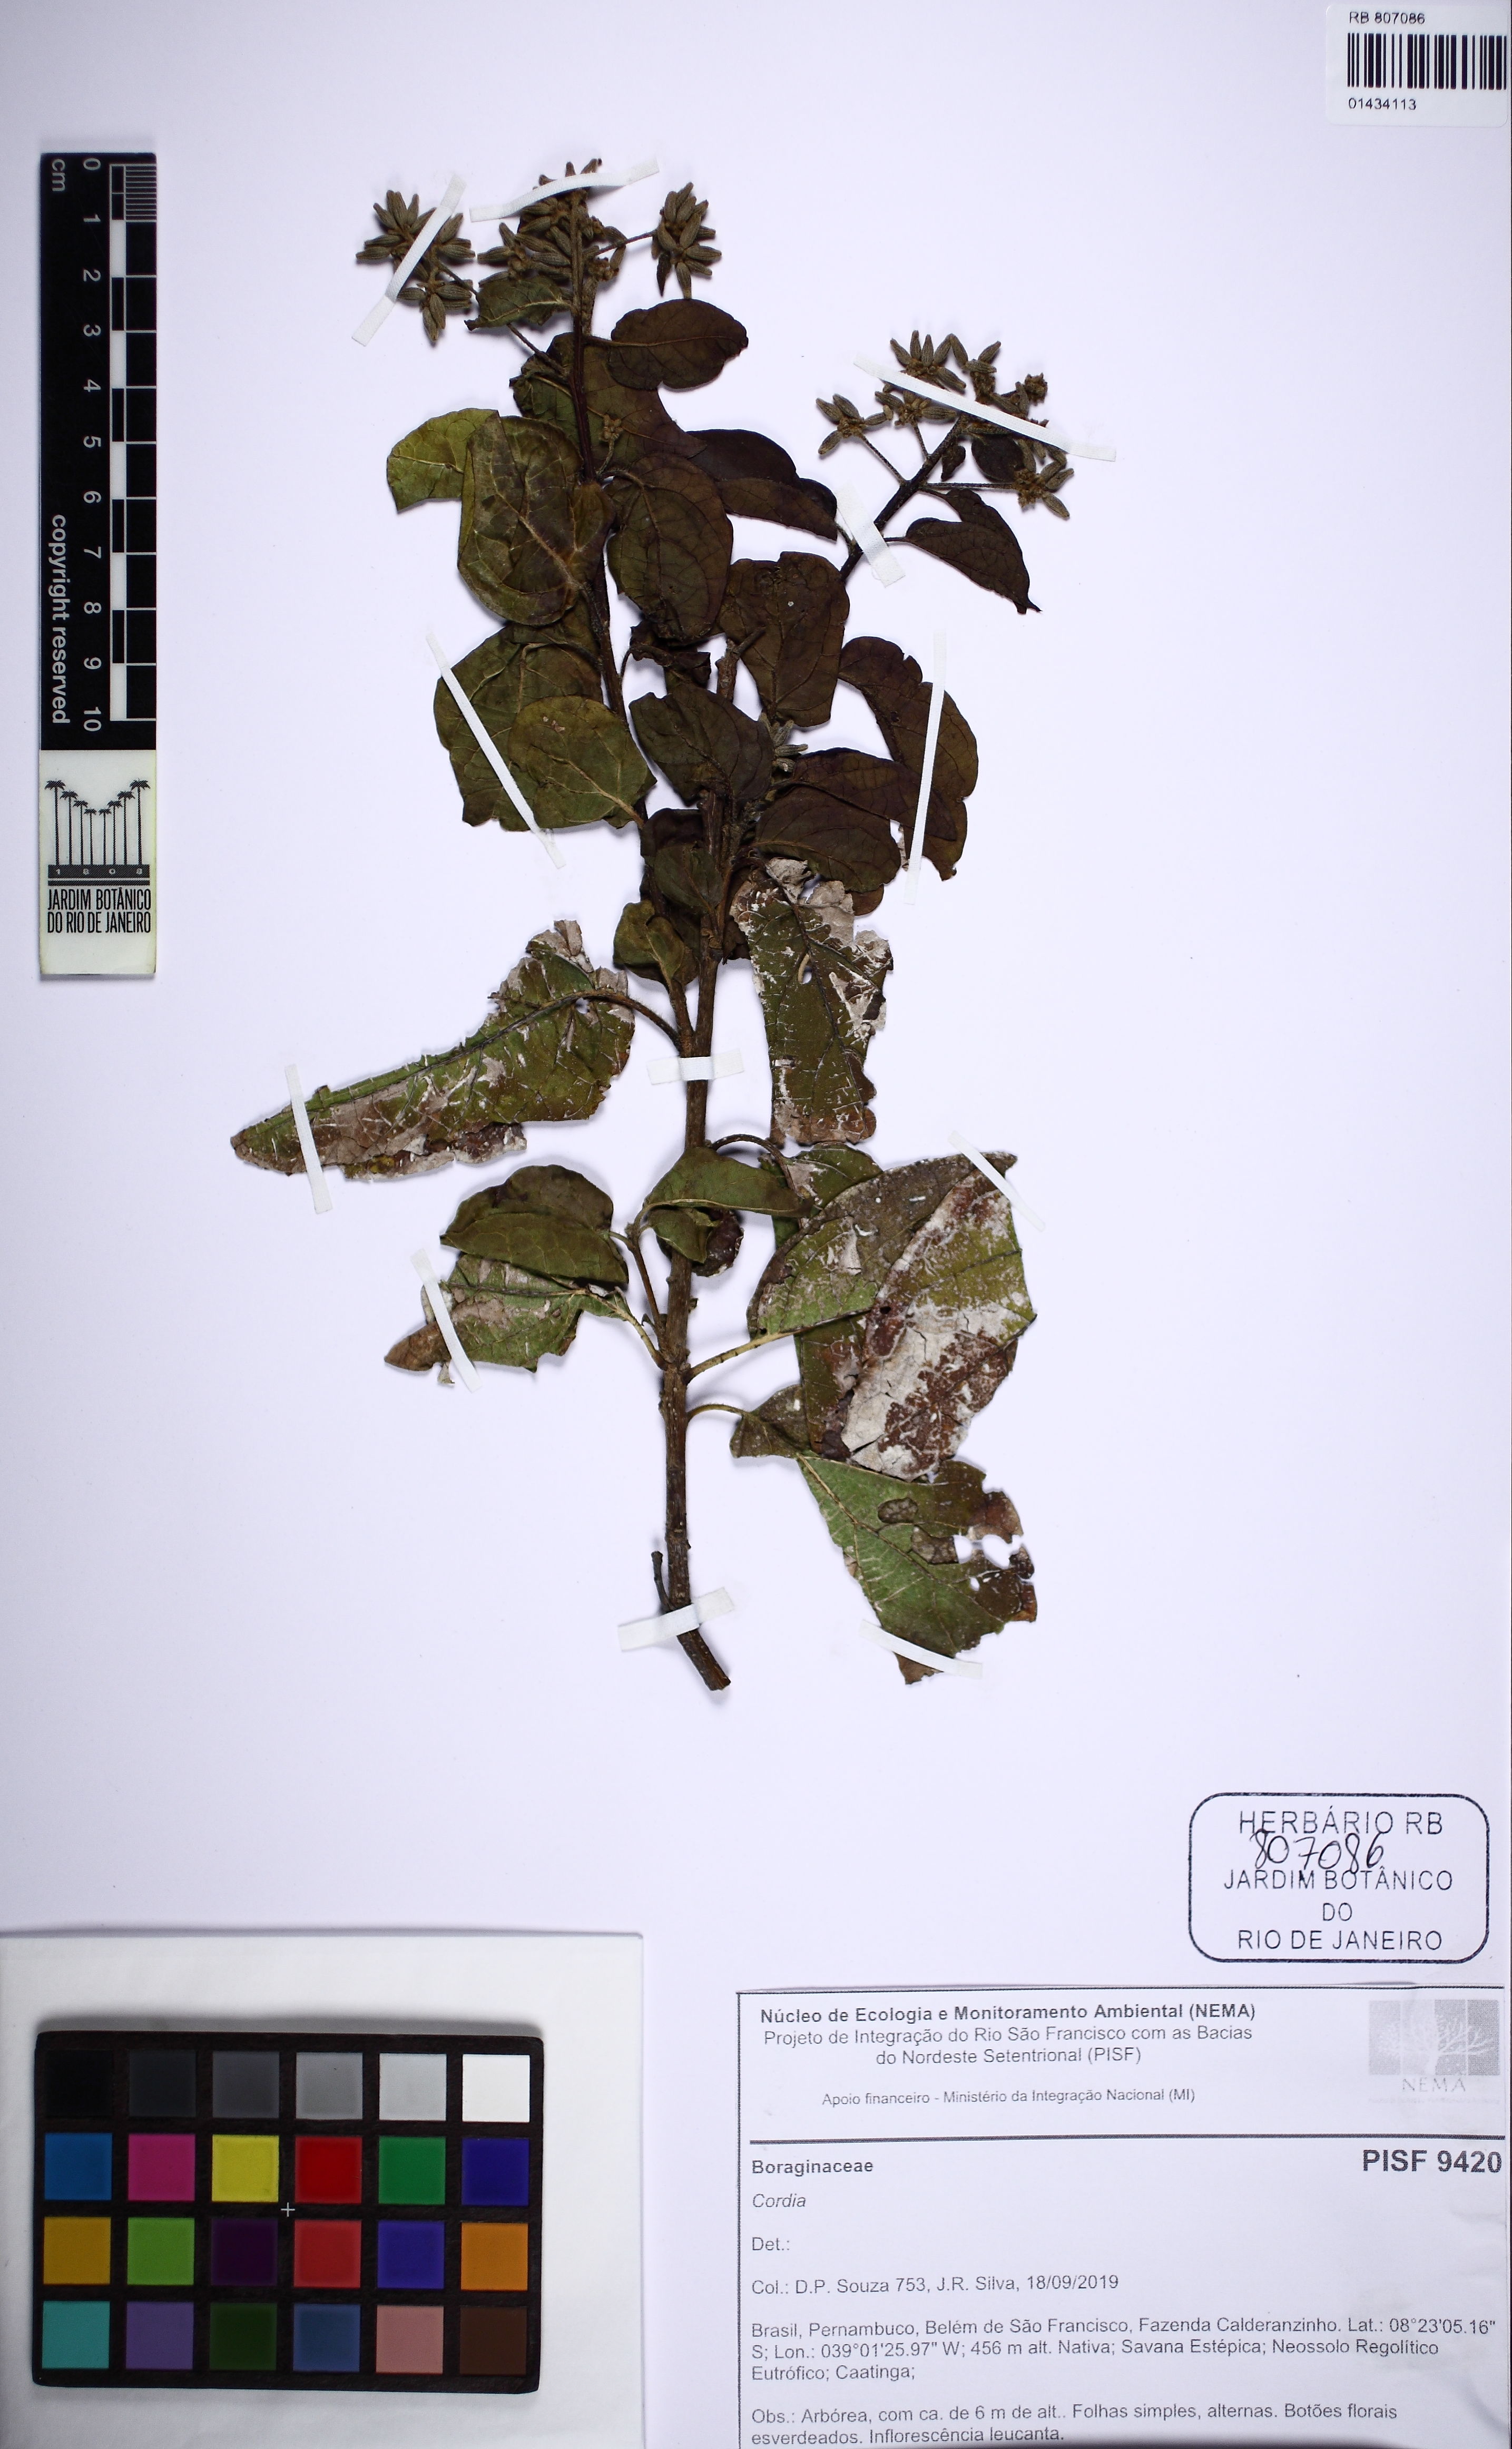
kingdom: Plantae
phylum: Tracheophyta
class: Magnoliopsida
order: Boraginales
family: Cordiaceae
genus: Cordia
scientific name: Cordia
